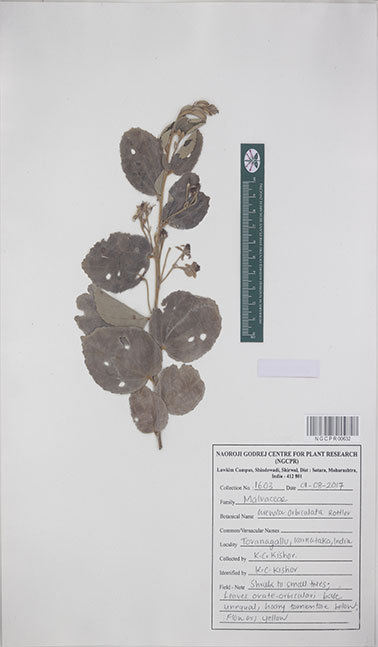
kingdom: Plantae
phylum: Tracheophyta
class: Magnoliopsida
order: Malvales
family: Malvaceae
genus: Grewia
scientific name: Grewia orbiculata
